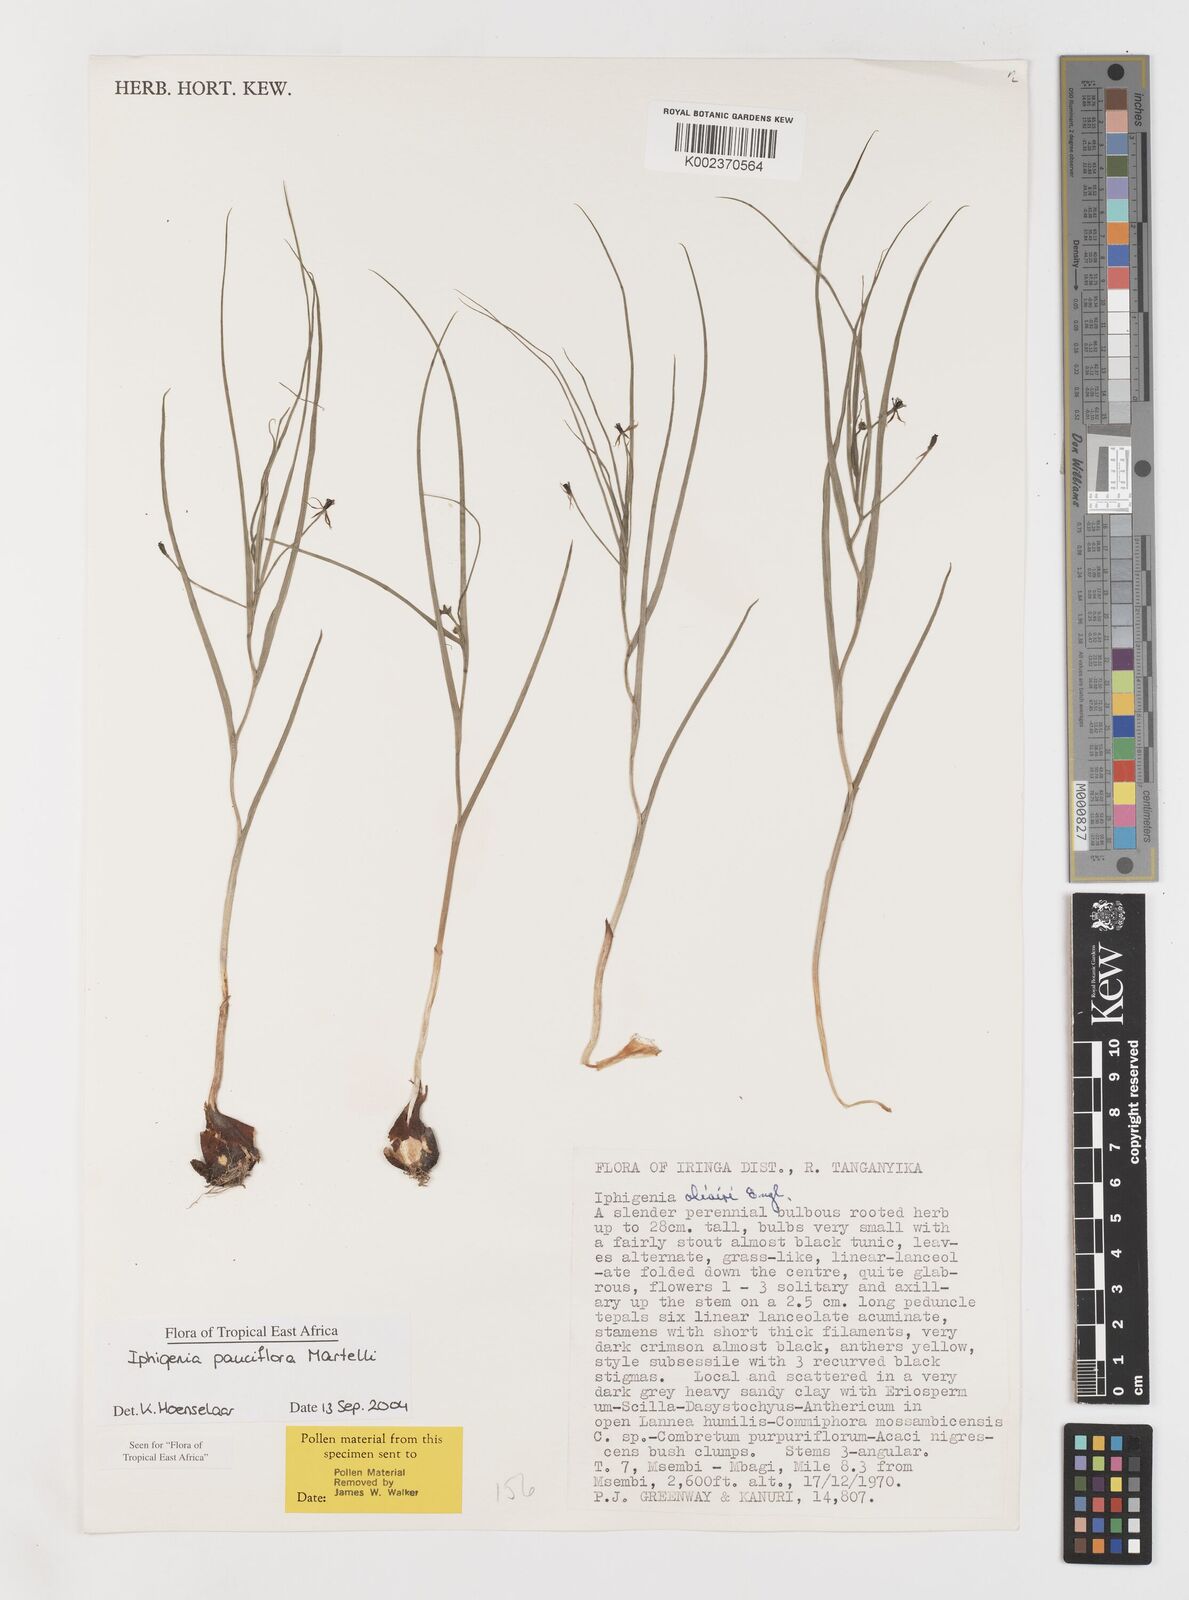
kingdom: Plantae
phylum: Tracheophyta
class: Liliopsida
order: Liliales
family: Colchicaceae
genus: Iphigenia
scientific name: Iphigenia pauciflora
